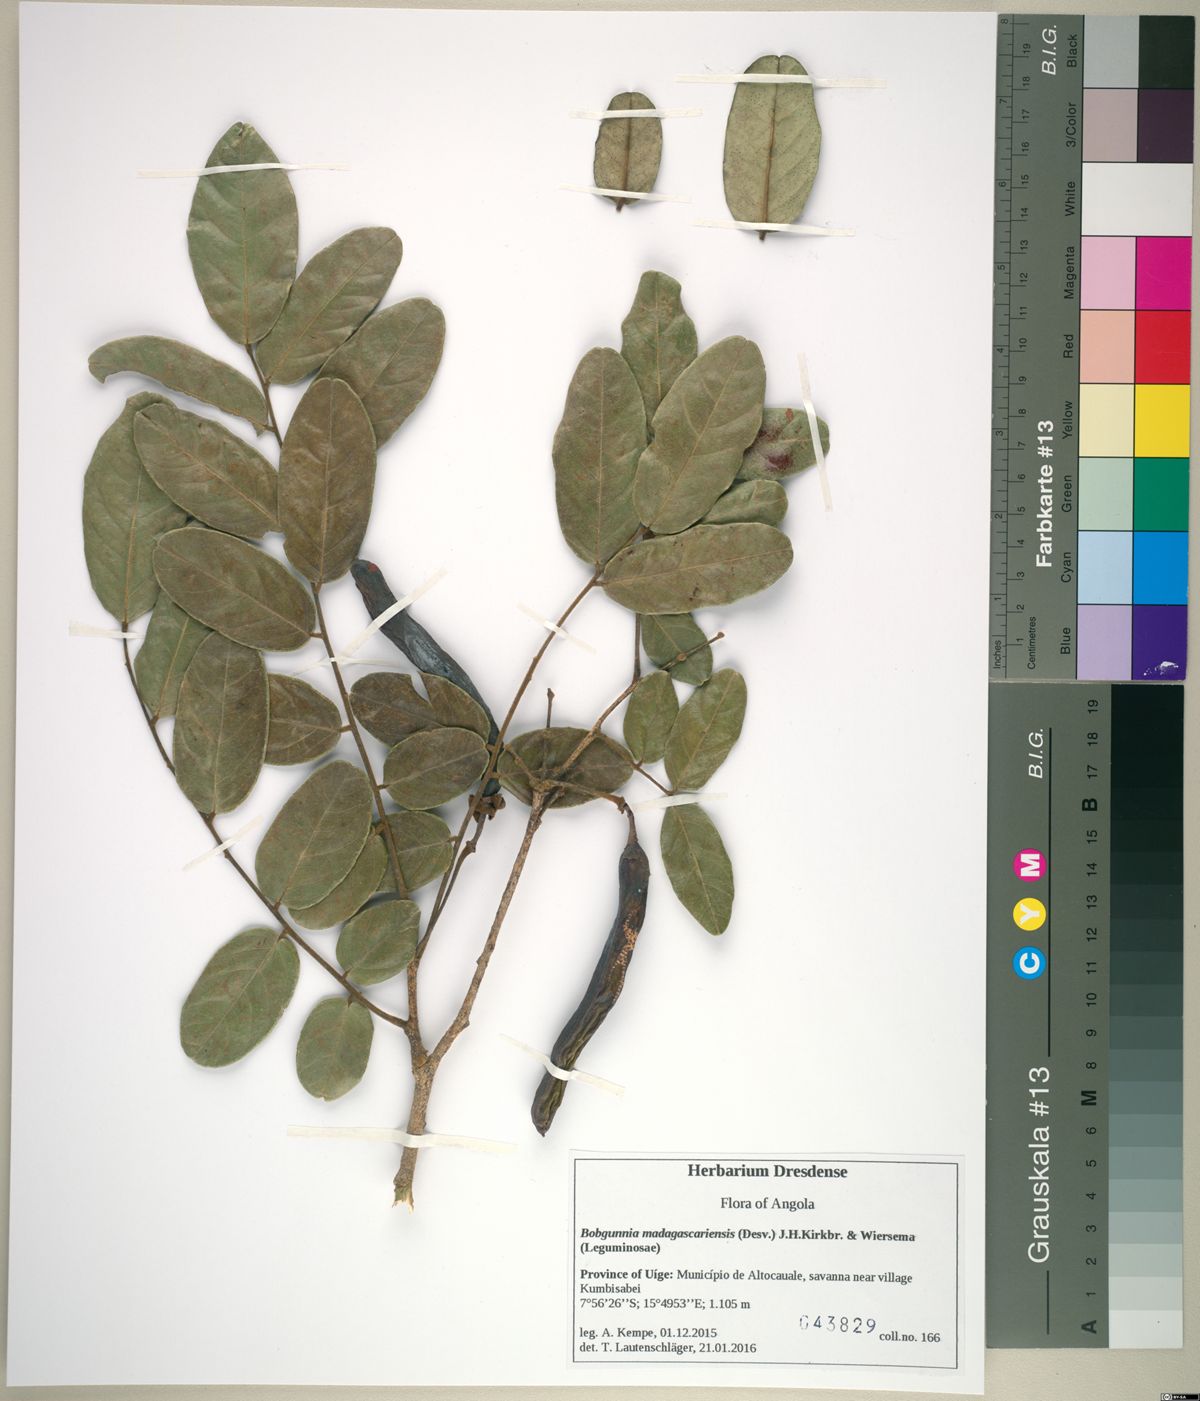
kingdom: Plantae
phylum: Tracheophyta
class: Magnoliopsida
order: Fabales
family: Fabaceae
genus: Bobgunnia
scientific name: Bobgunnia madagascariensis
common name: Snake bean plant
